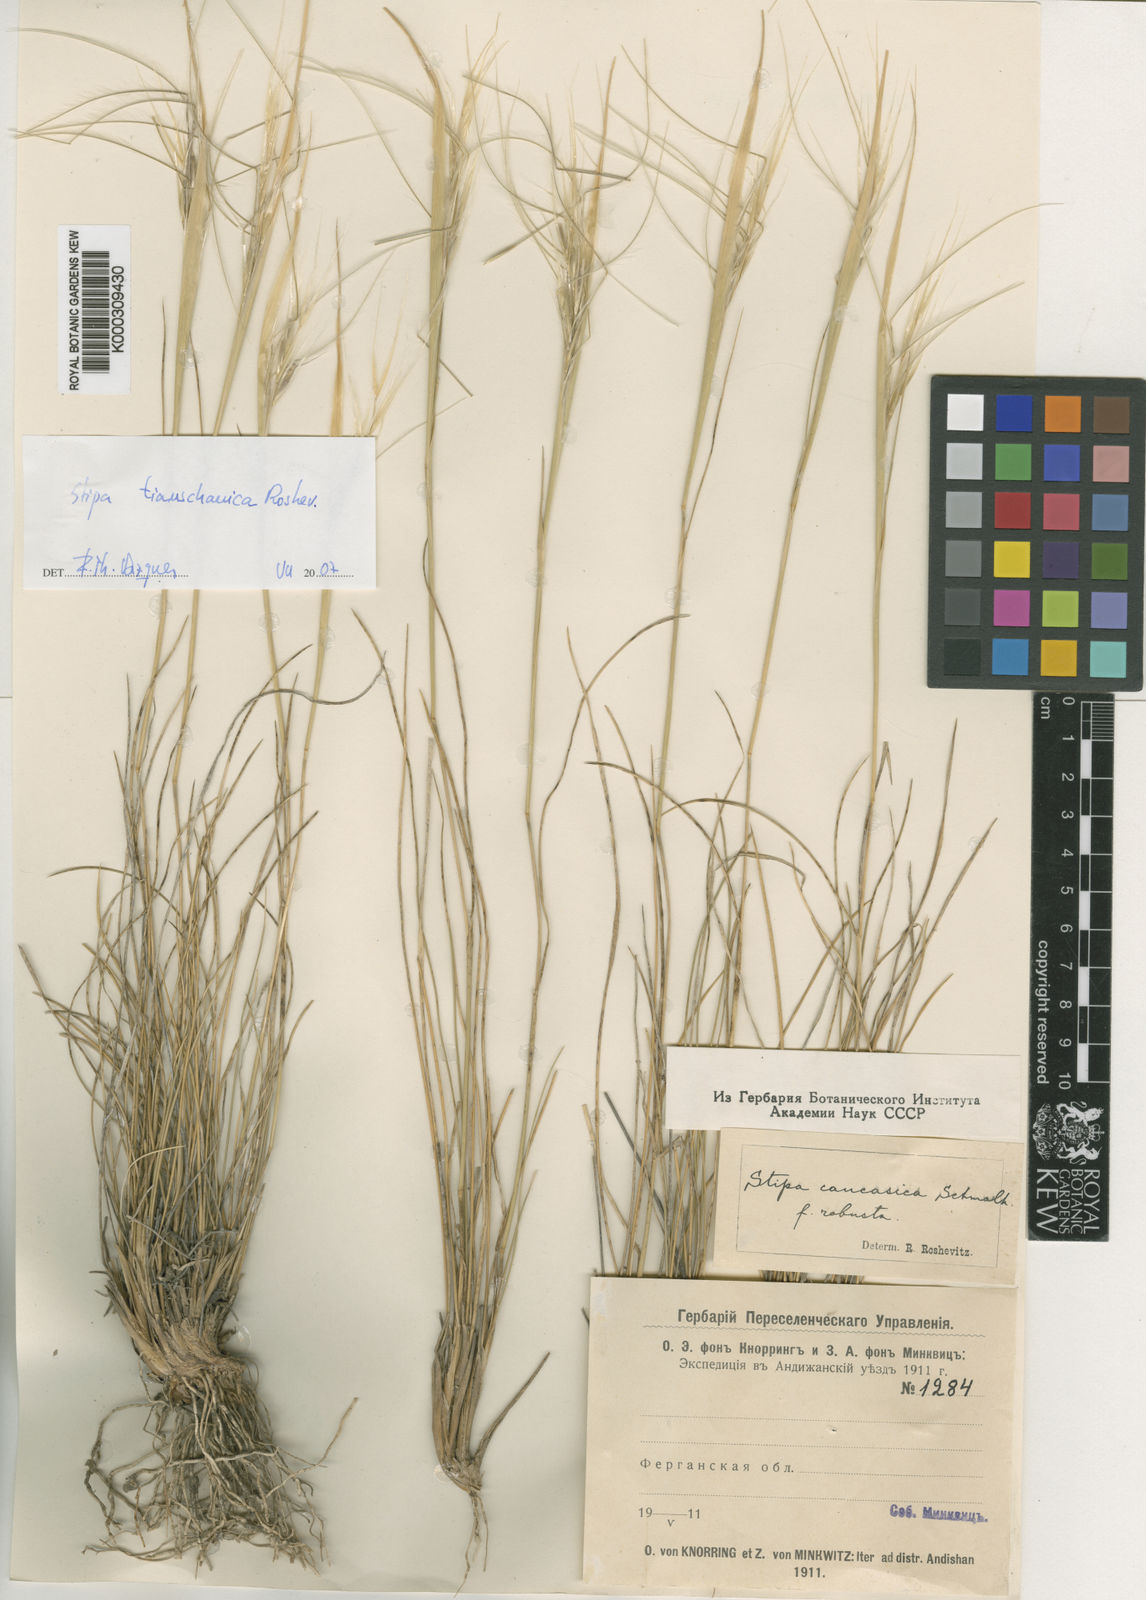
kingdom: Plantae
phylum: Tracheophyta
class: Liliopsida
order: Poales
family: Poaceae
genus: Stipa
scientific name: Stipa caucasica
